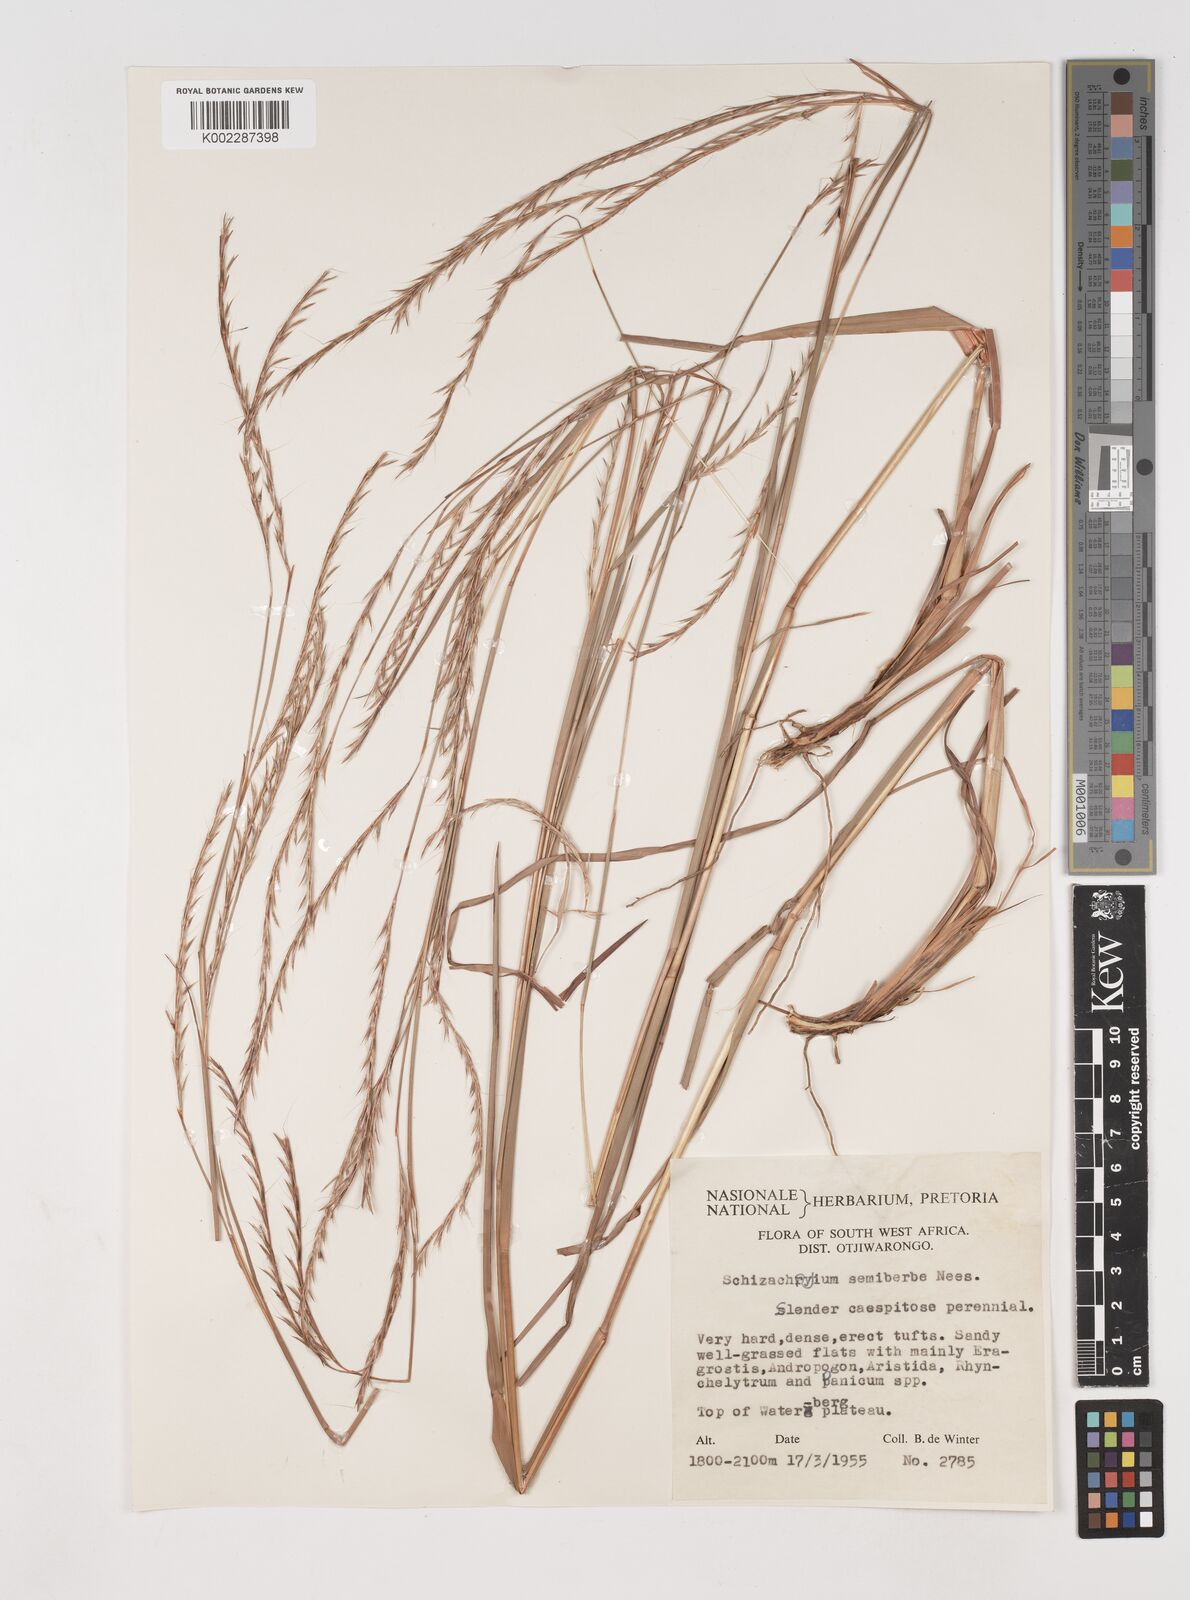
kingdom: Plantae
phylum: Tracheophyta
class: Liliopsida
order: Poales
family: Poaceae
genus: Schizachyrium
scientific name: Schizachyrium sanguineum
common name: Crimson bluestem
